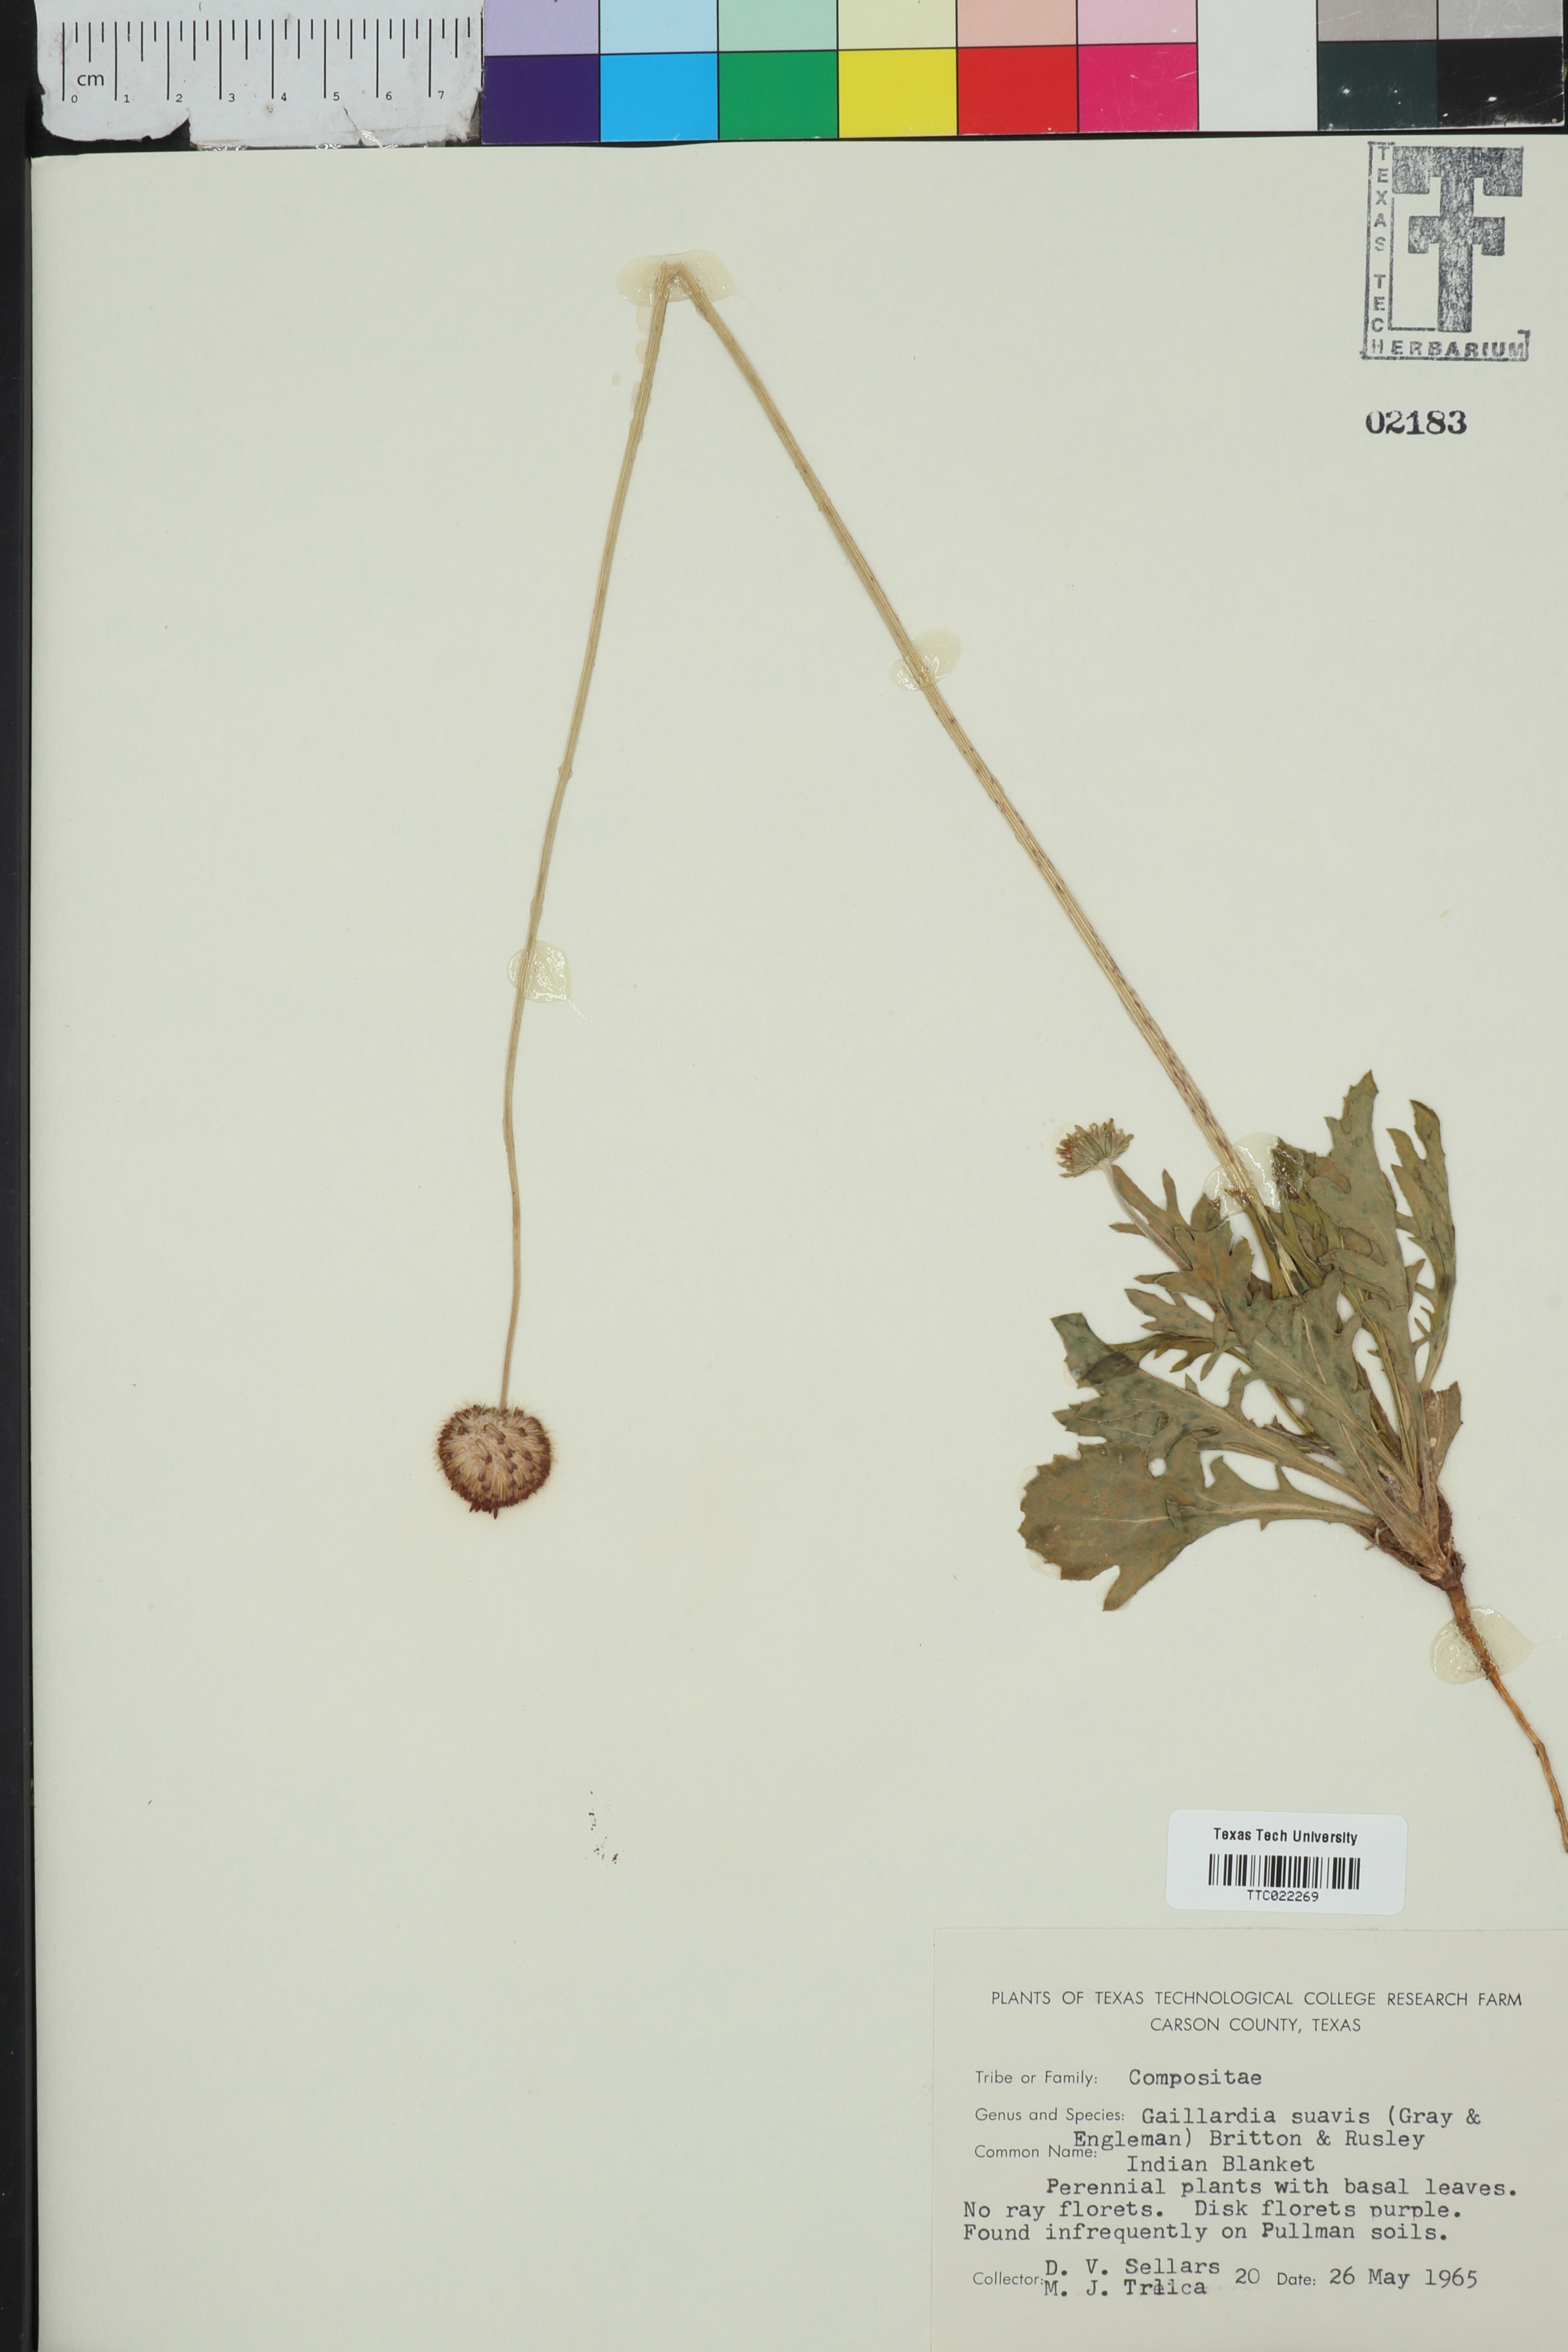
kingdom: Plantae
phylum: Tracheophyta
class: Magnoliopsida
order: Asterales
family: Asteraceae
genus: Gaillardia
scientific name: Gaillardia suavis
